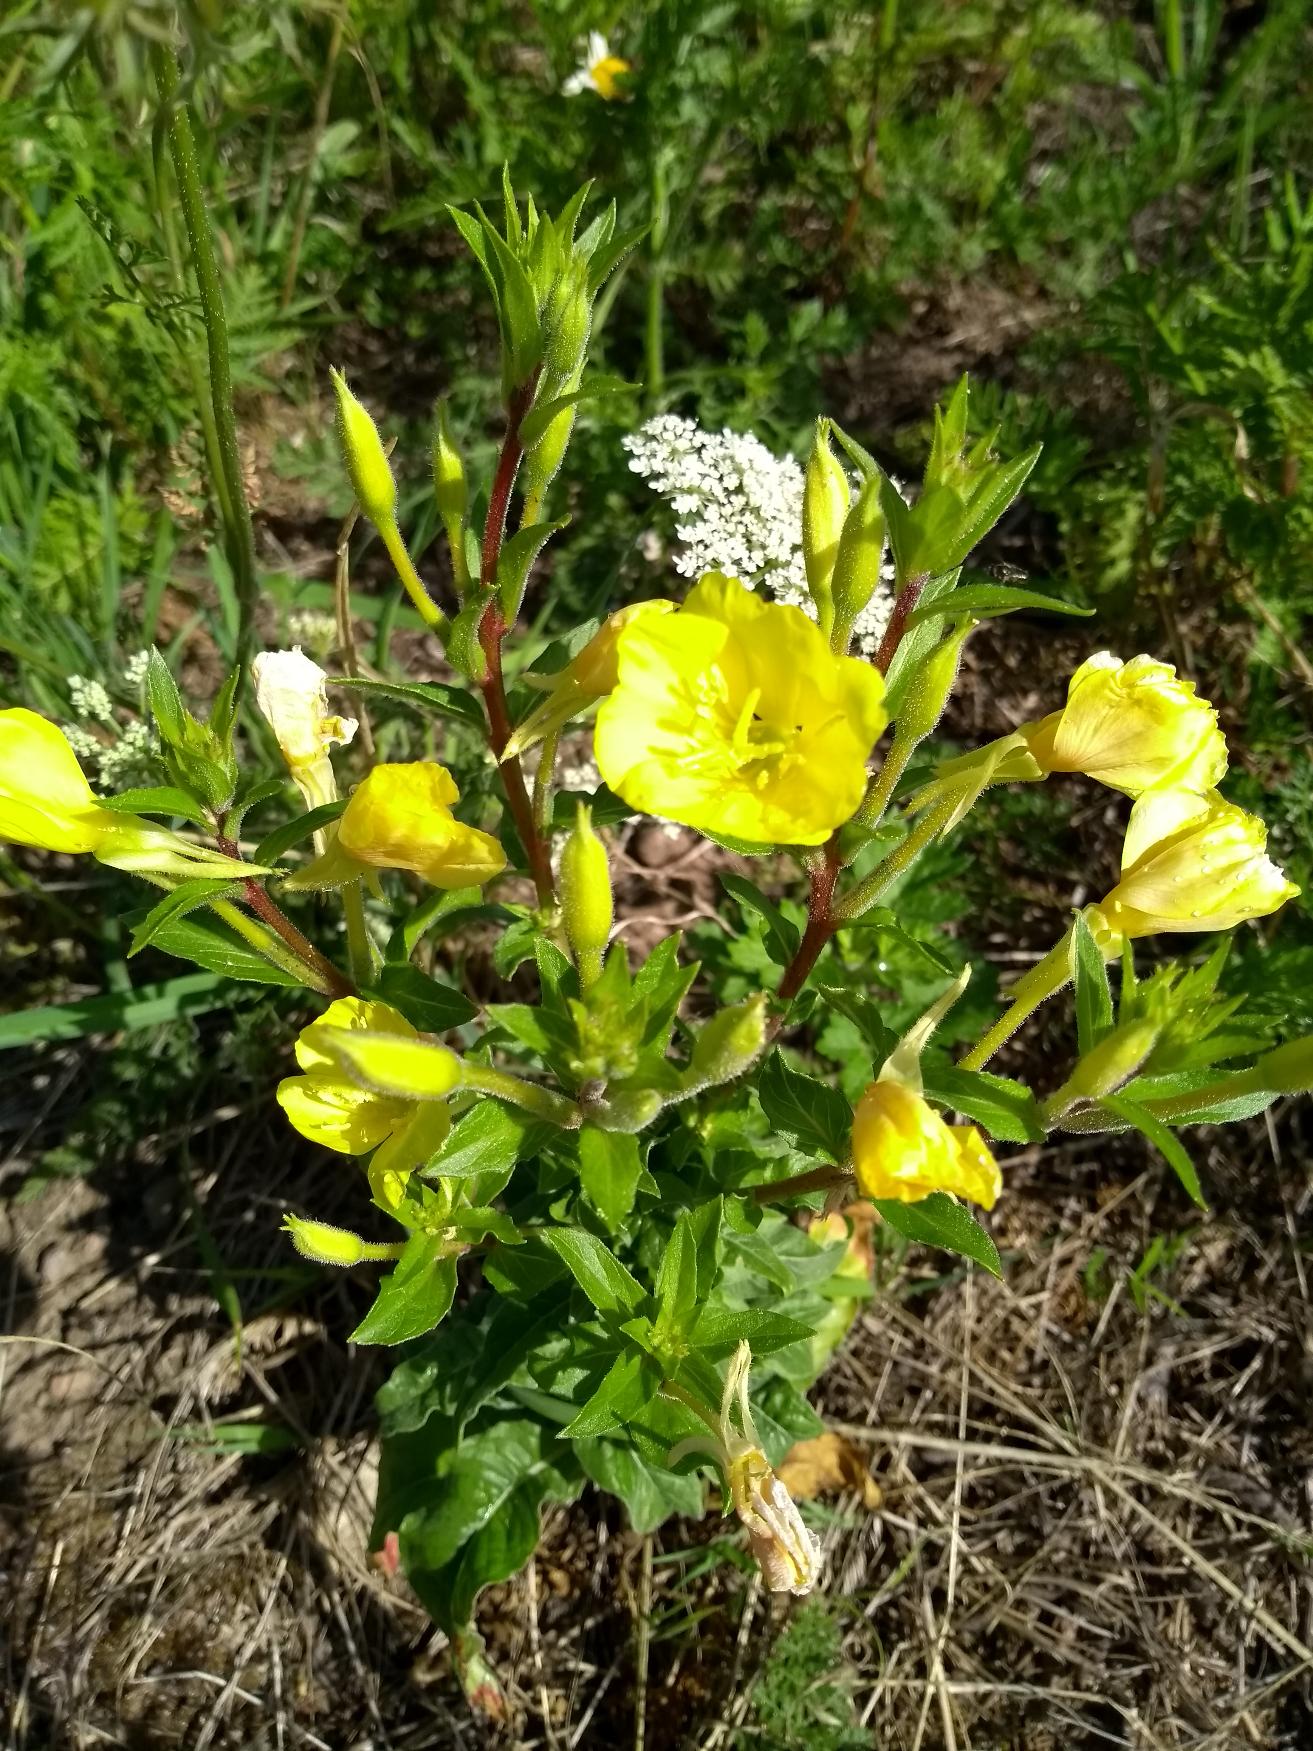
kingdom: Plantae
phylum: Tracheophyta
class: Magnoliopsida
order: Myrtales
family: Onagraceae
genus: Oenothera
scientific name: Oenothera biennis
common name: Rødfrugtet natlys
